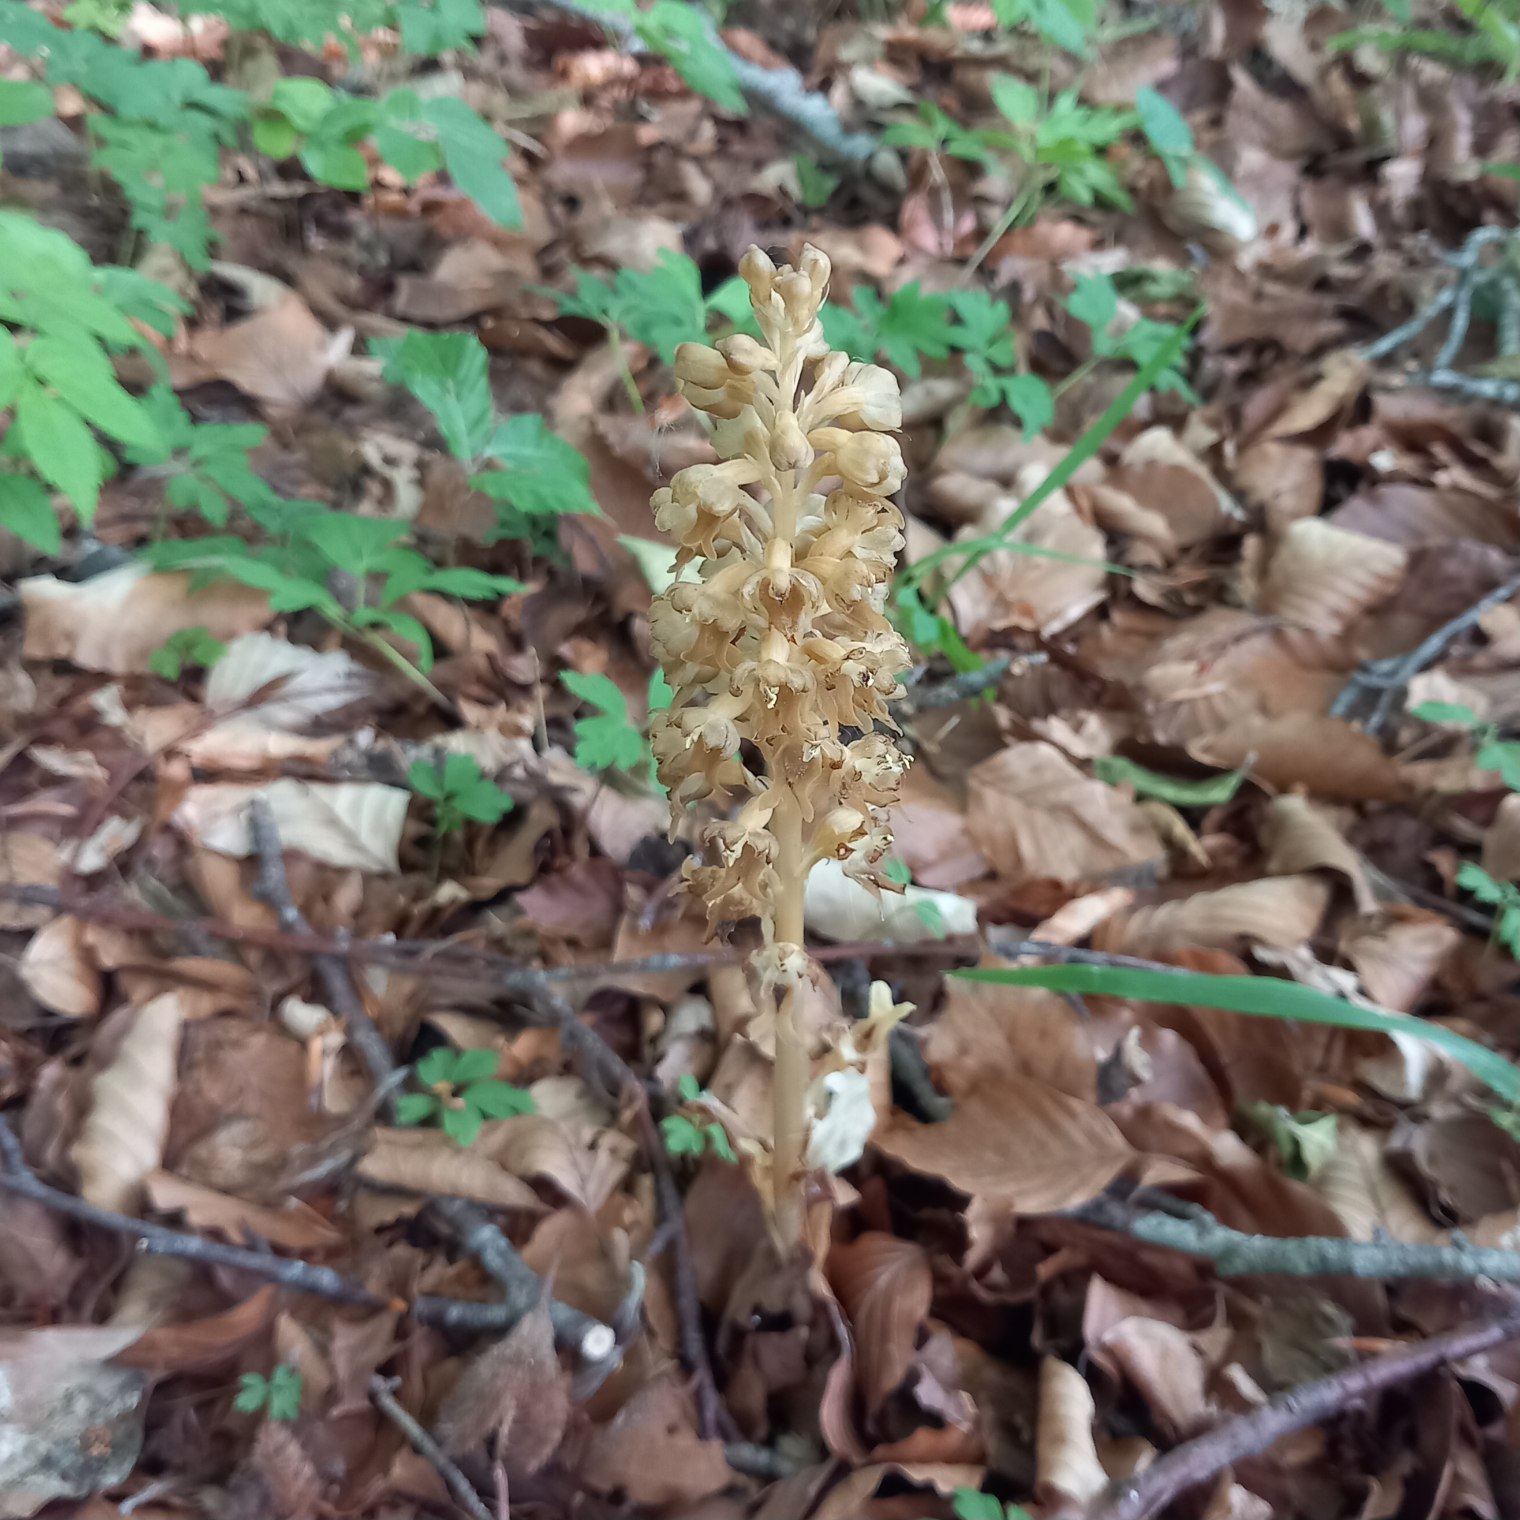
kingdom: Plantae
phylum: Tracheophyta
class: Liliopsida
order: Asparagales
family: Orchidaceae
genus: Neottia
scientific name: Neottia nidus-avis
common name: Rederod
